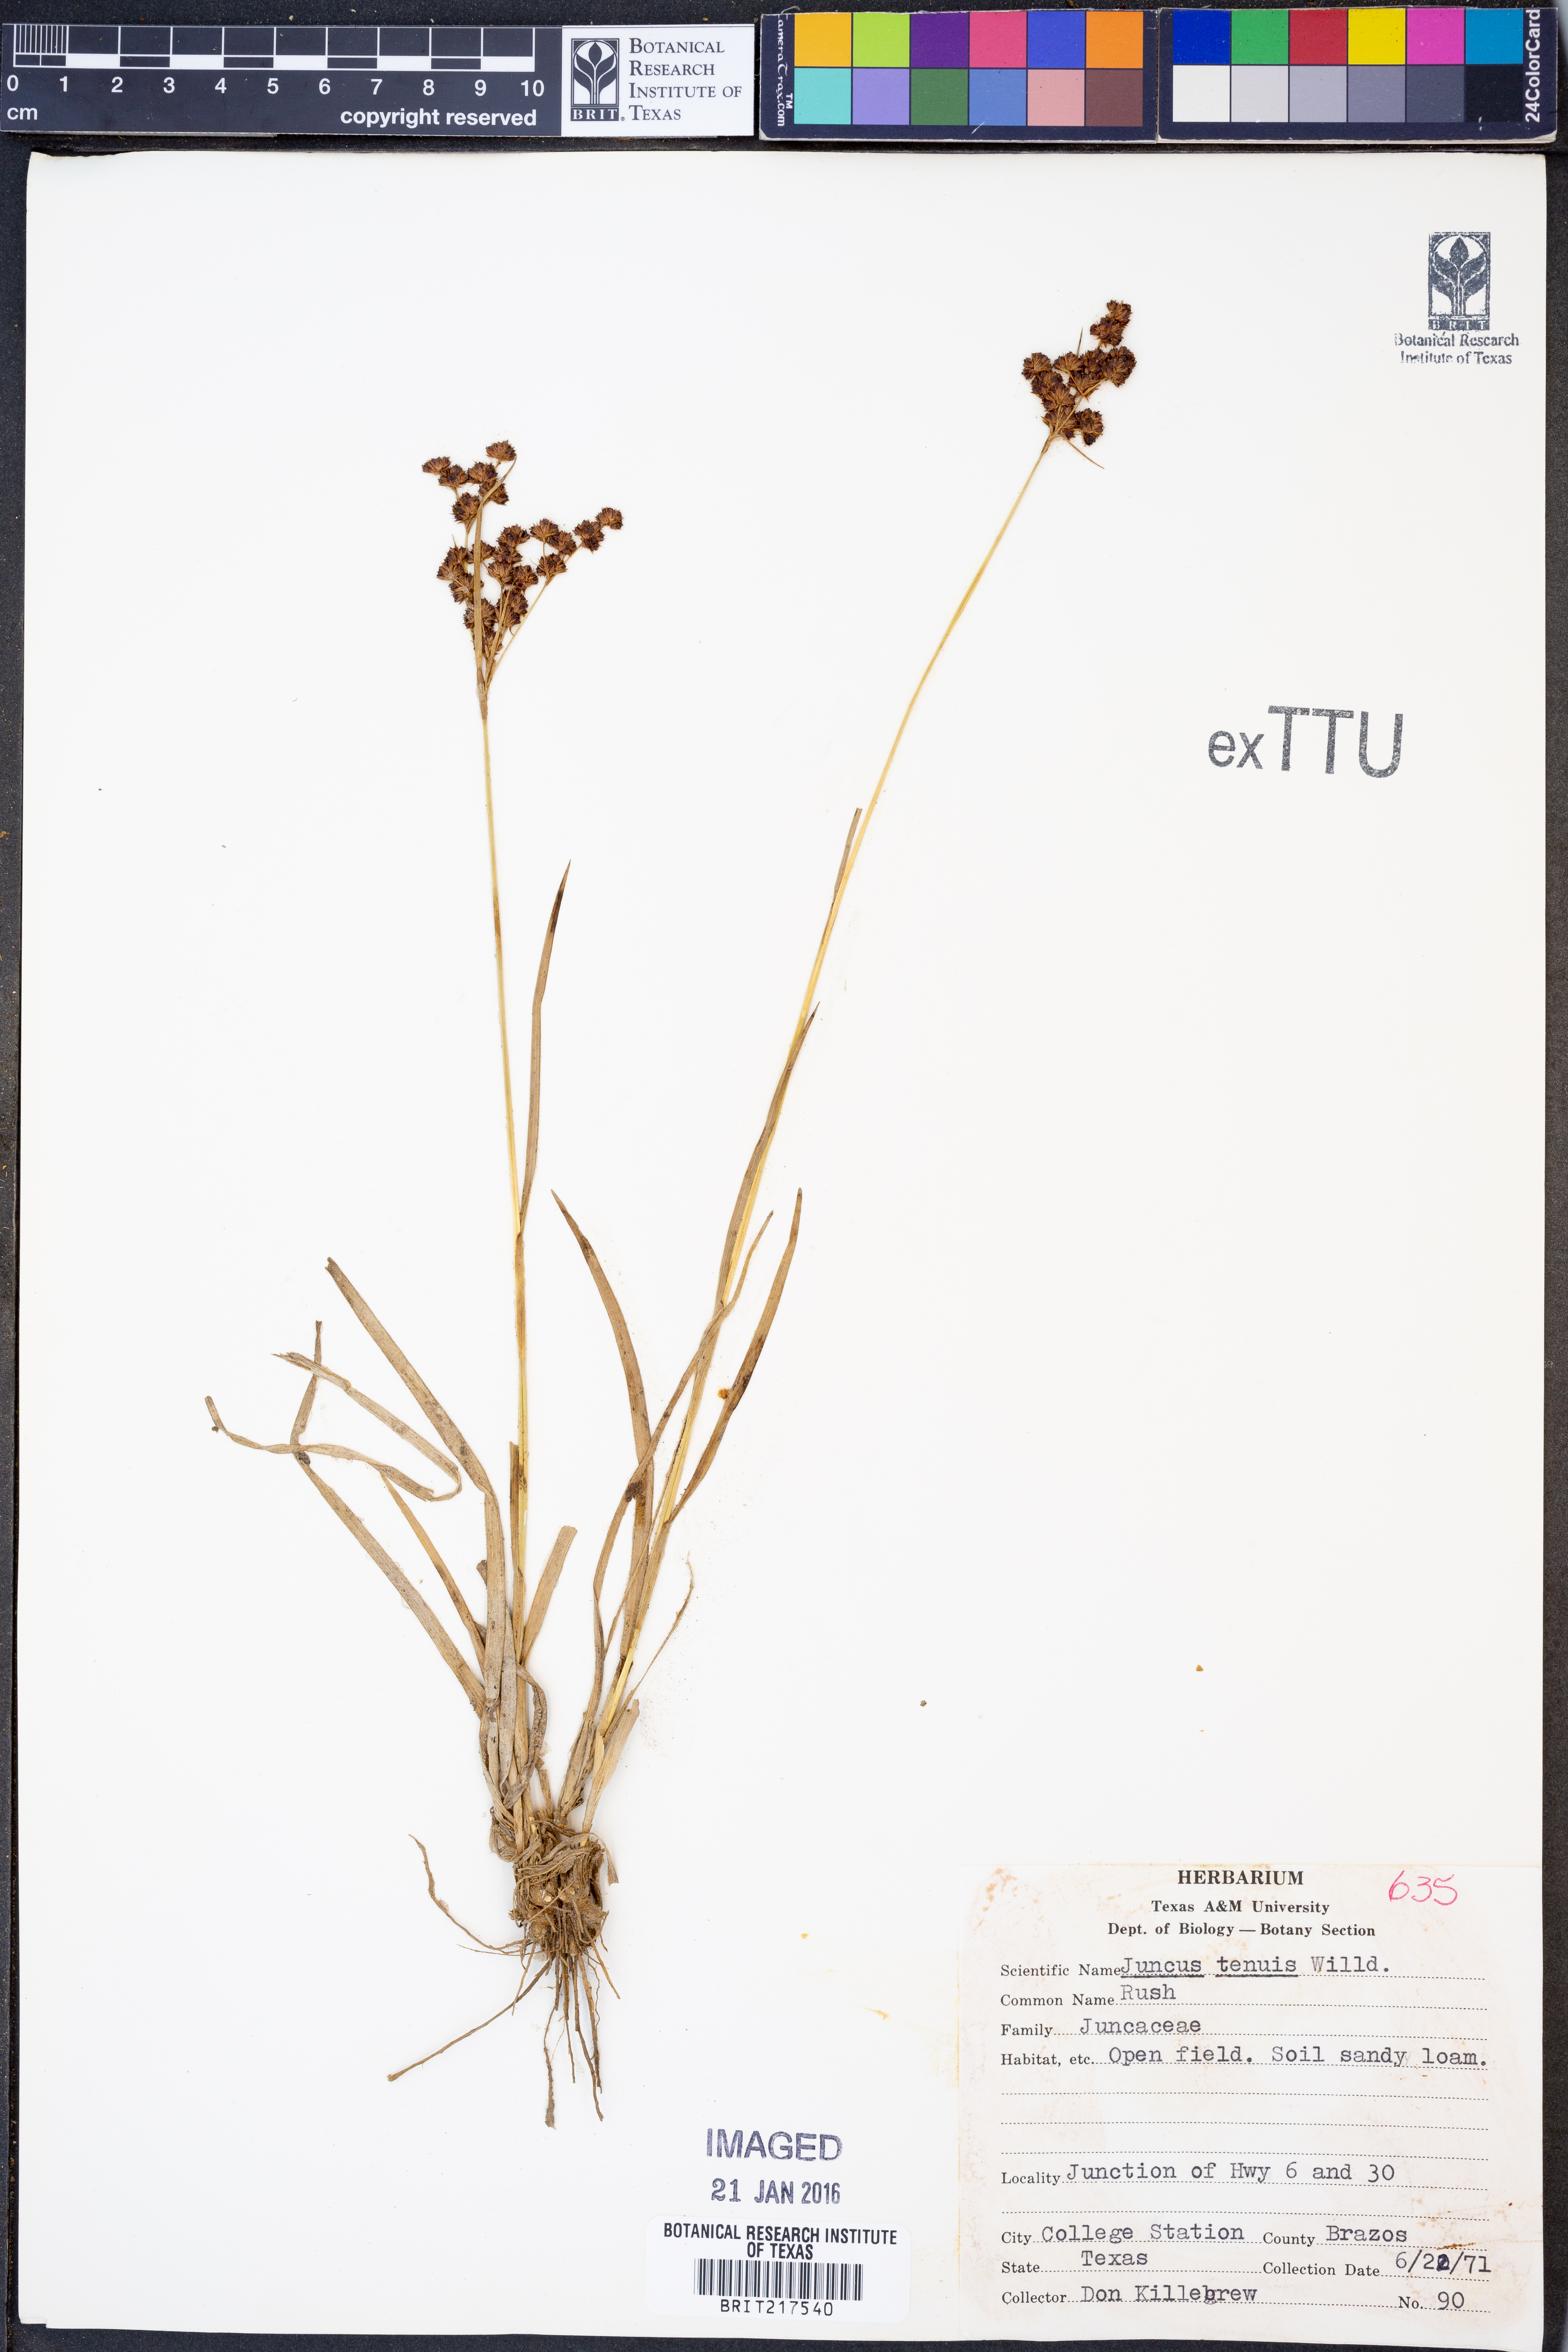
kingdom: Plantae
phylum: Tracheophyta
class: Liliopsida
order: Poales
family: Juncaceae
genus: Juncus
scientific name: Juncus tenuis
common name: Slender rush
